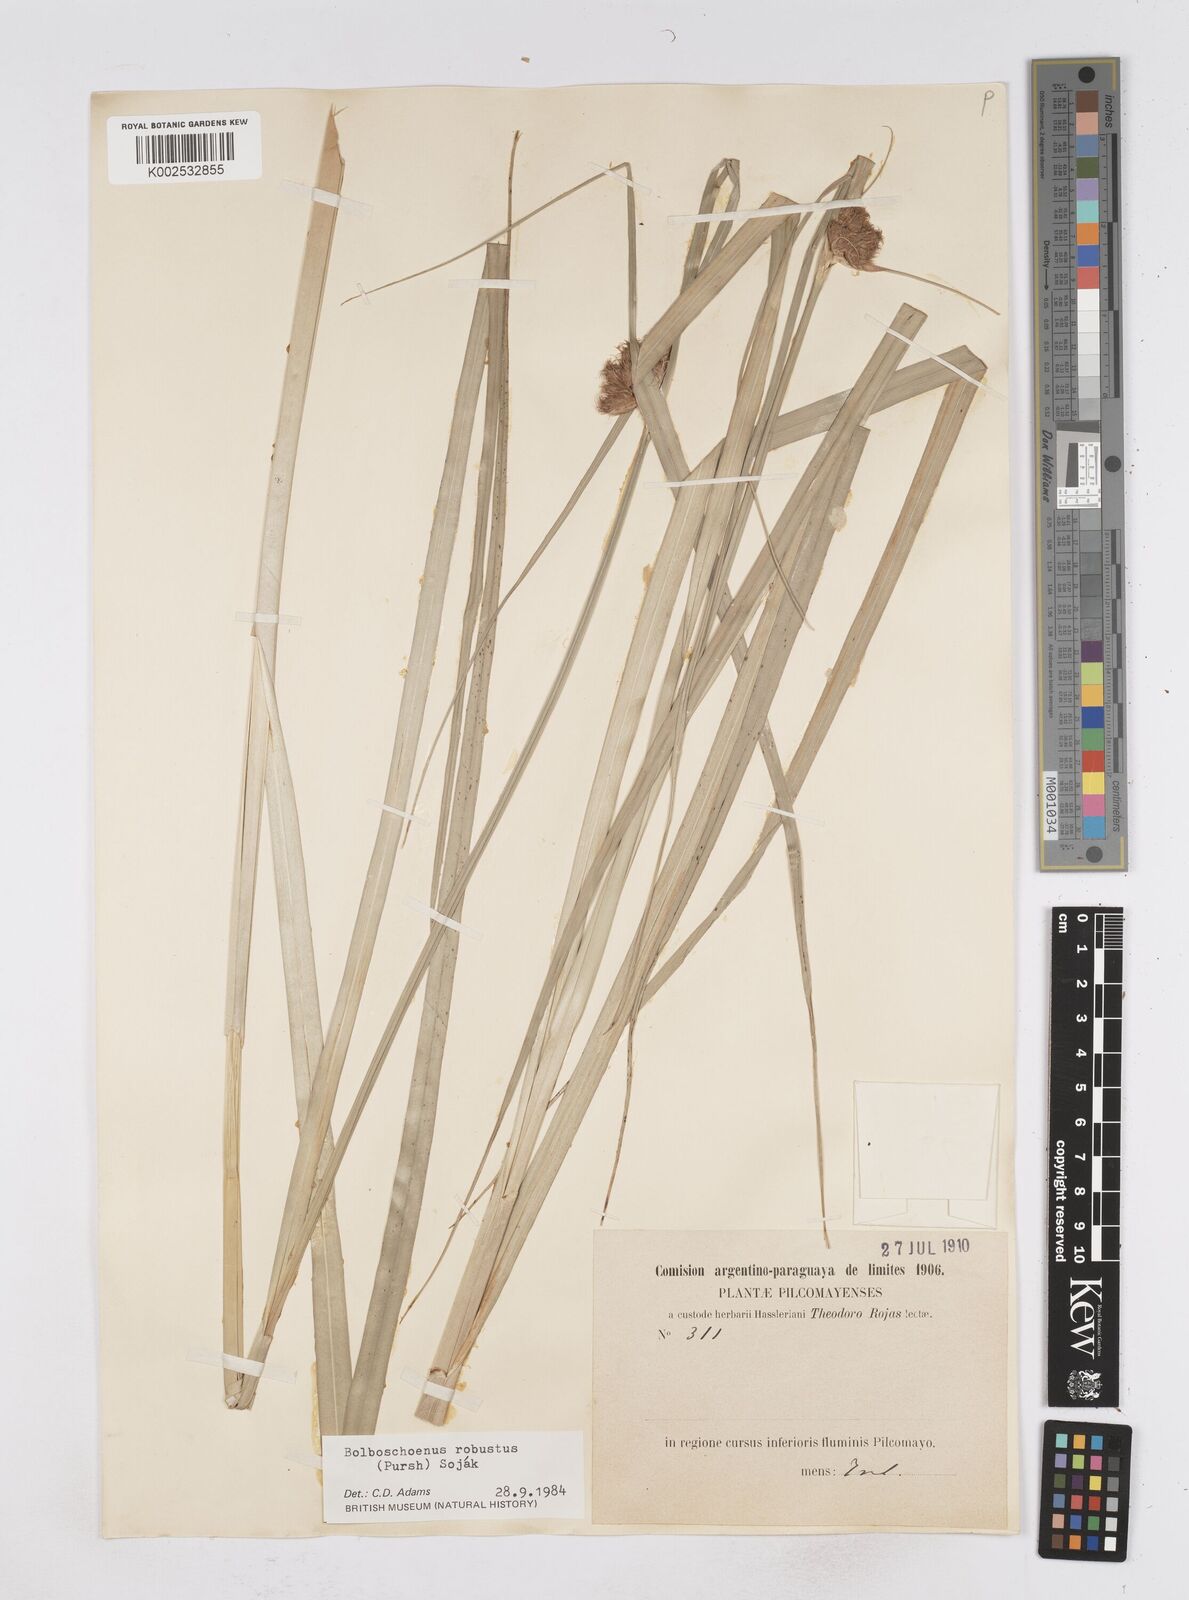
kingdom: Plantae
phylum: Tracheophyta
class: Liliopsida
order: Poales
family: Cyperaceae
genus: Bolboschoenus
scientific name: Bolboschoenus robustus
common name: Seacoast bulrush
